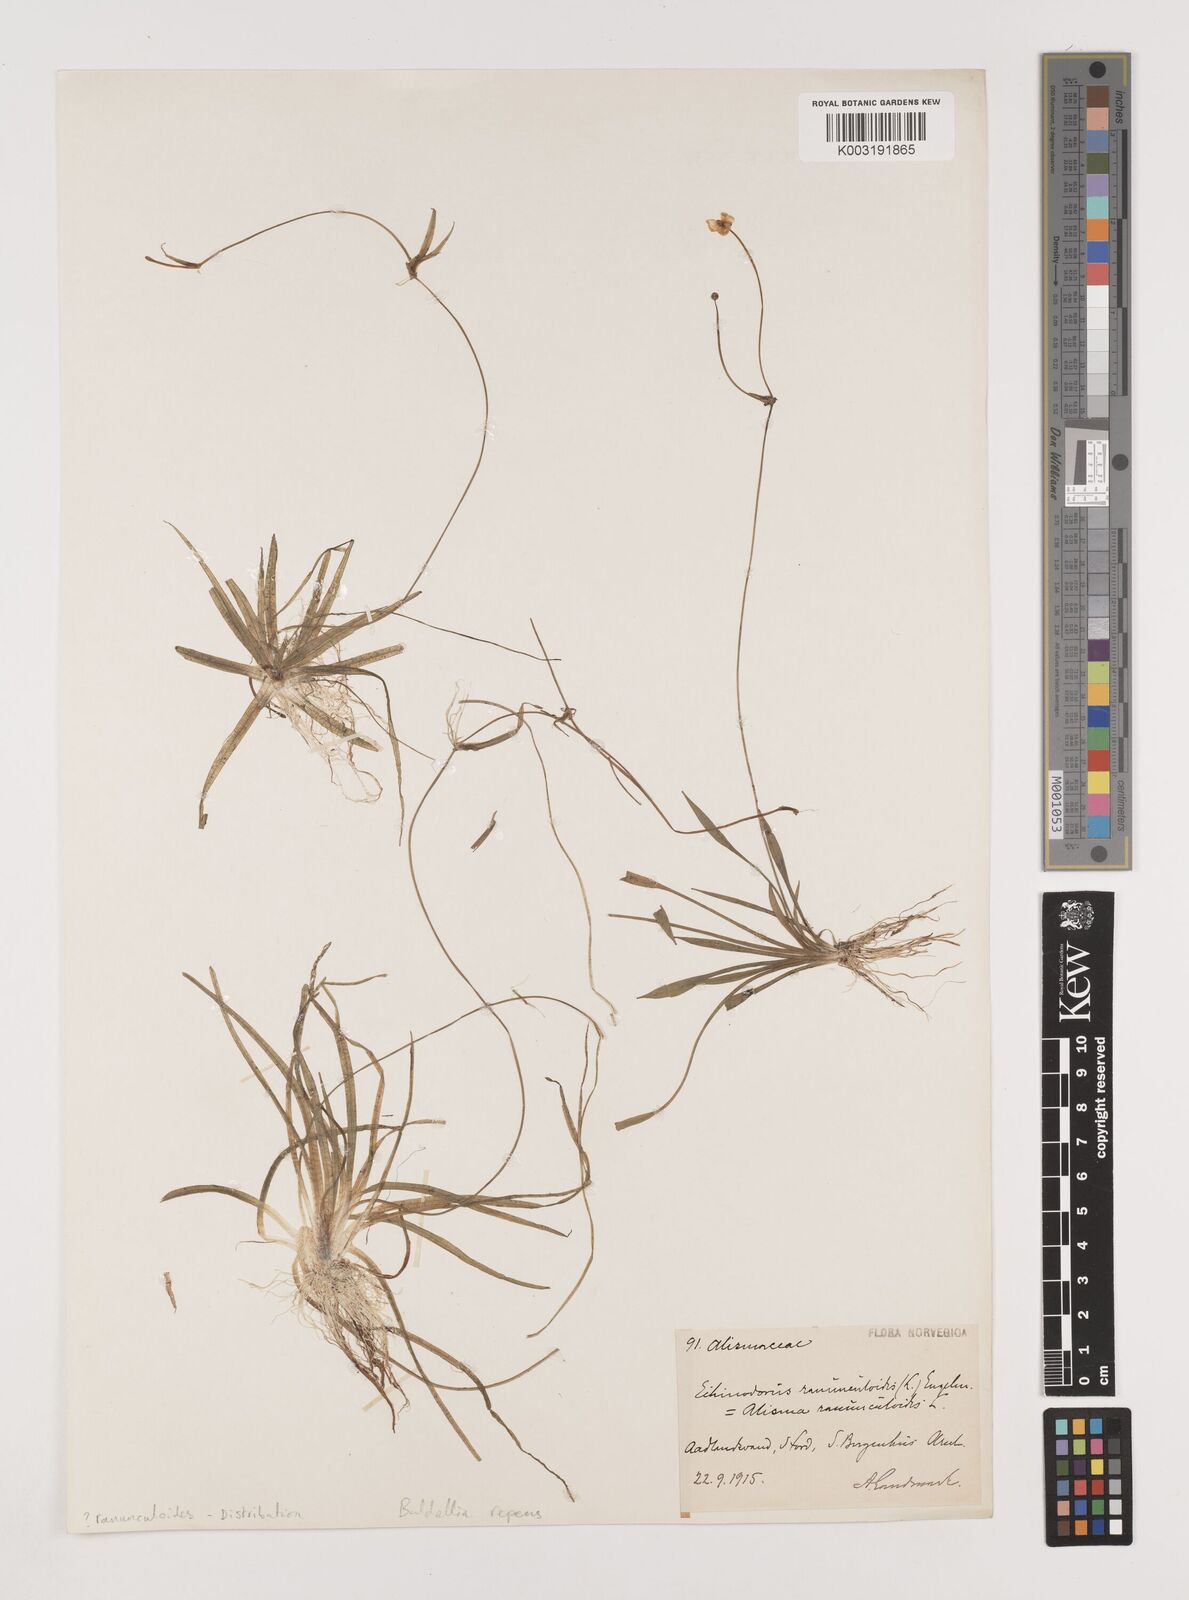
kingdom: Plantae
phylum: Tracheophyta
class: Liliopsida
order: Alismatales
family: Alismataceae
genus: Baldellia
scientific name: Baldellia repens
